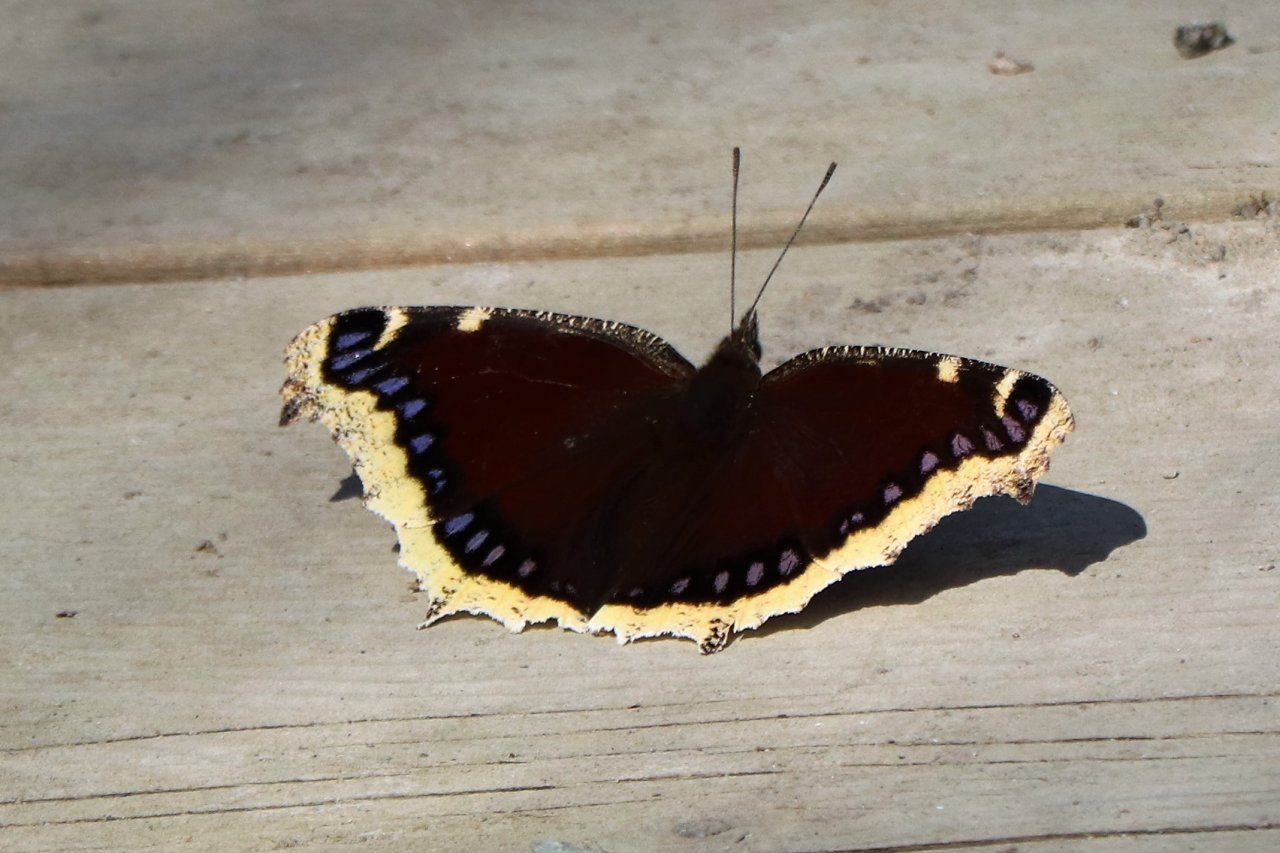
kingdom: Animalia
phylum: Arthropoda
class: Insecta
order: Lepidoptera
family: Nymphalidae
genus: Nymphalis
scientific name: Nymphalis antiopa
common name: Mourning Cloak
